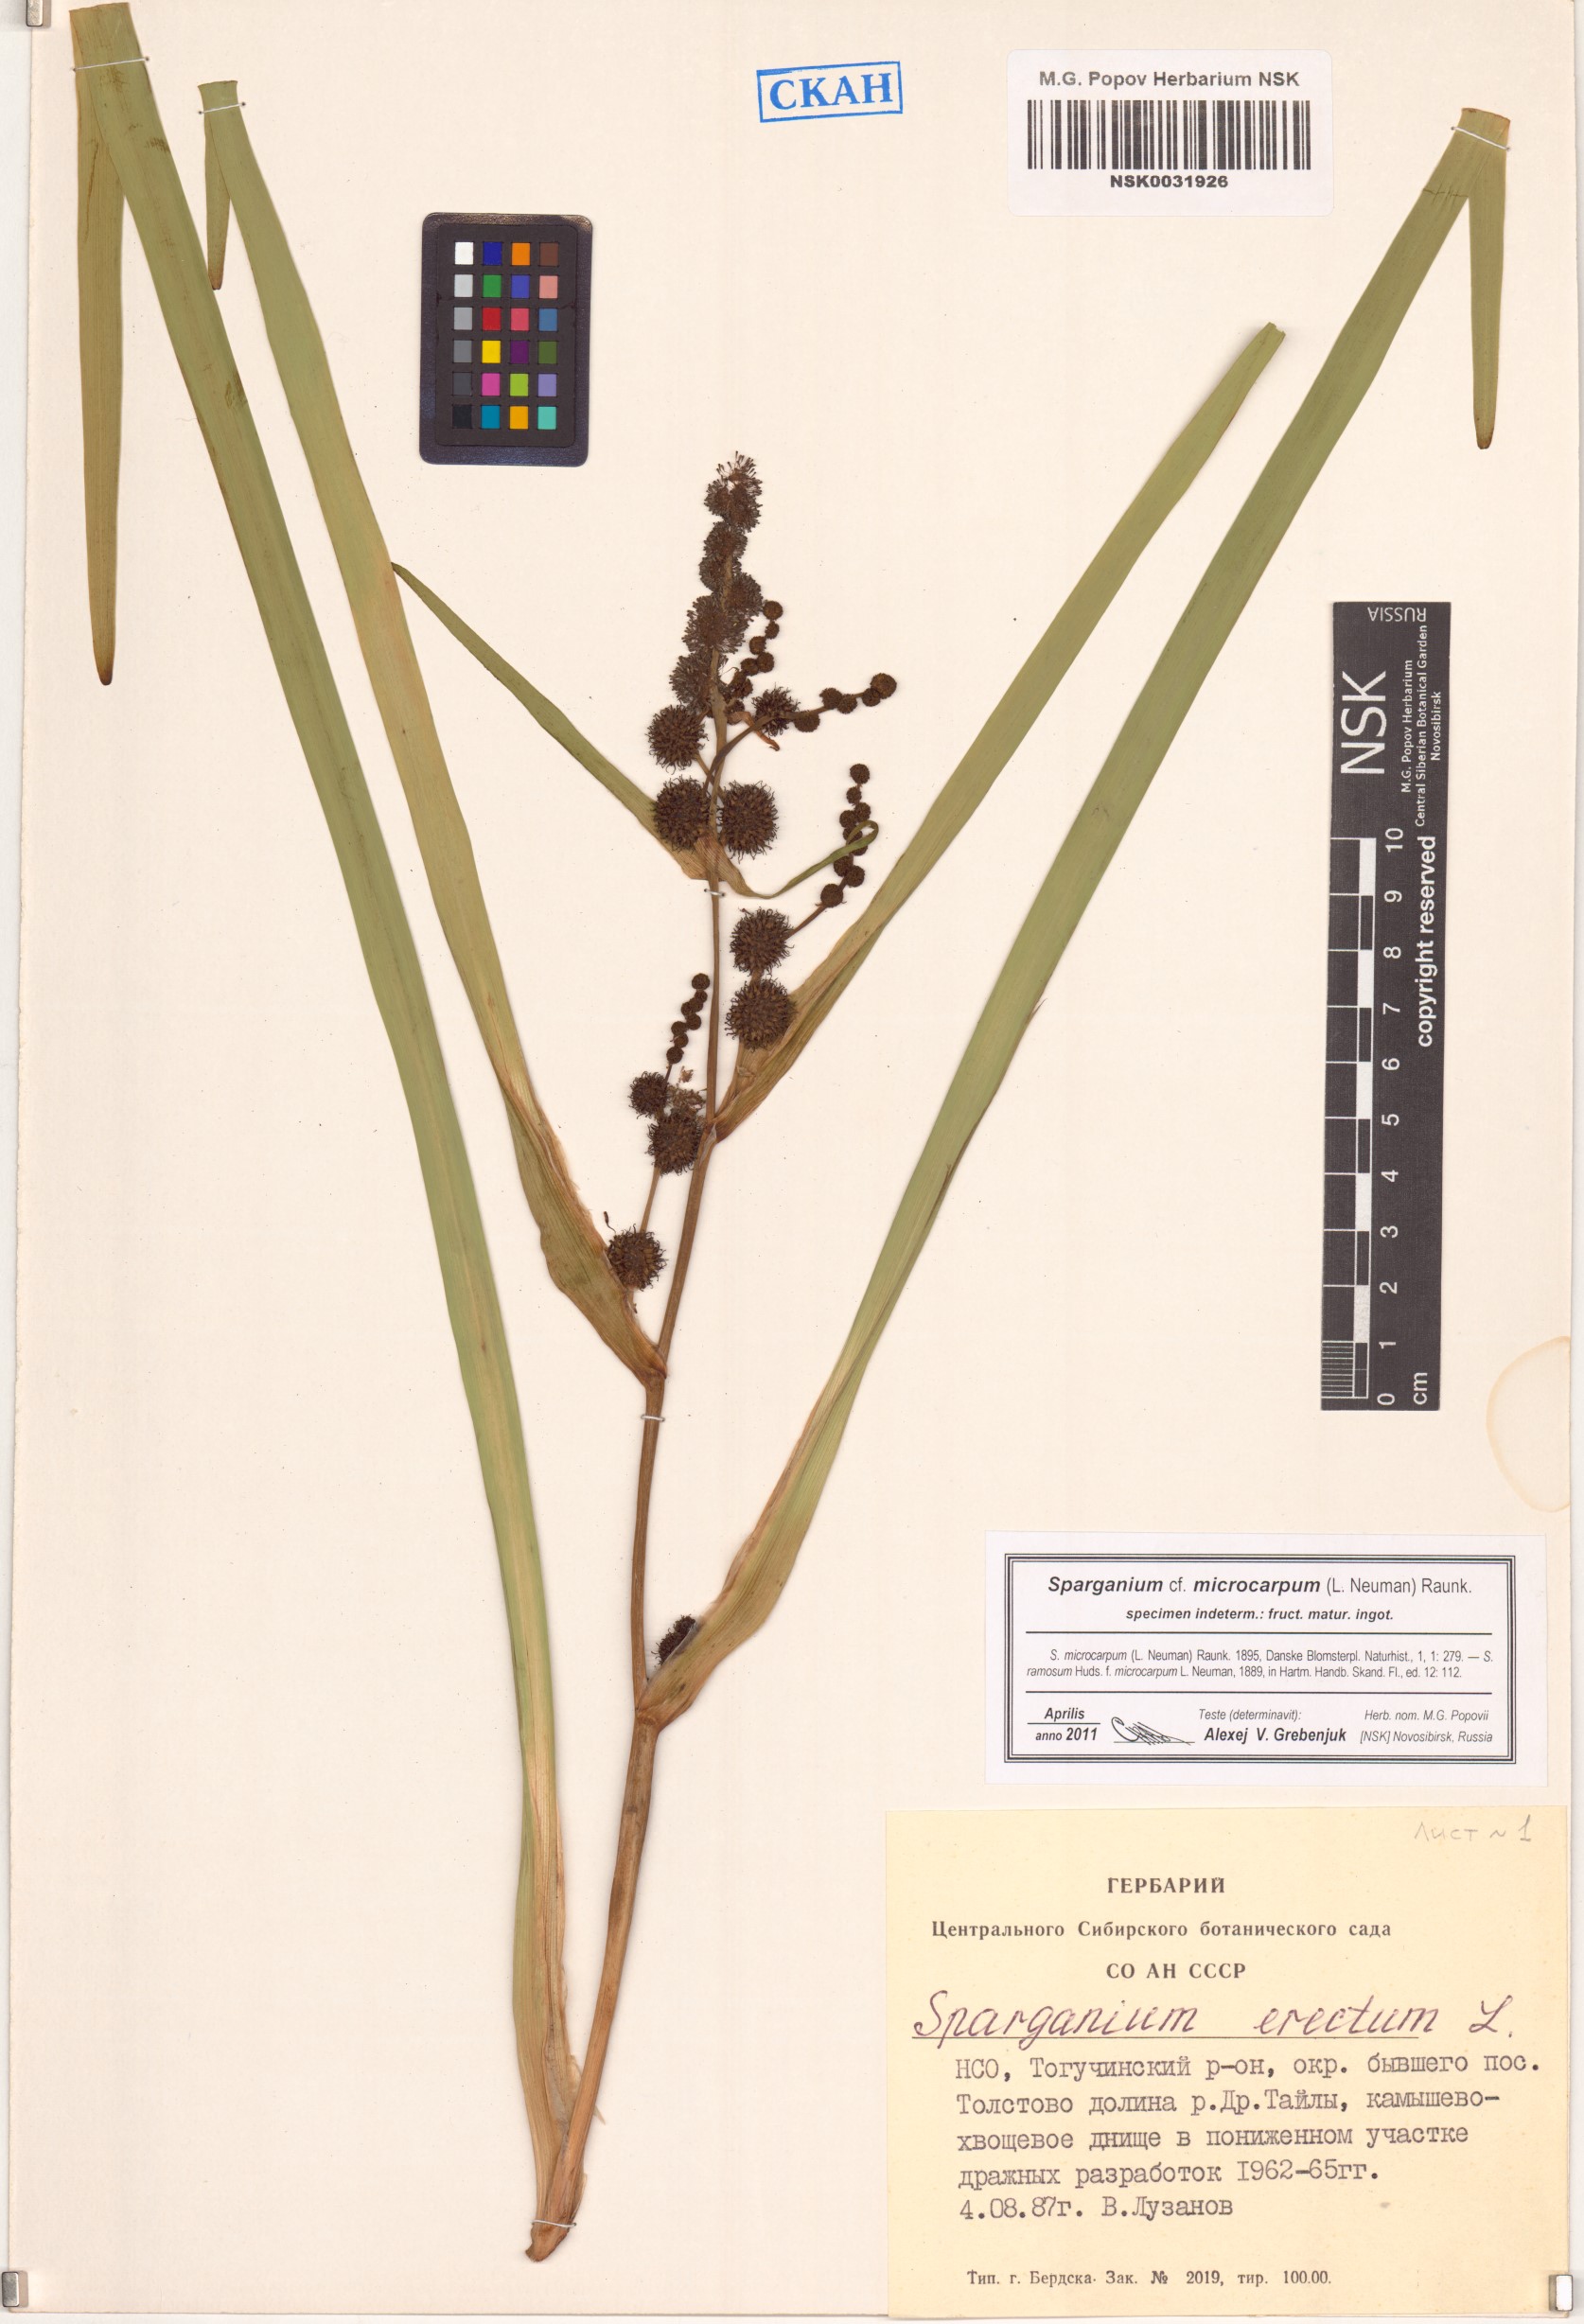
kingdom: Plantae
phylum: Tracheophyta
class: Liliopsida
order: Poales
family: Typhaceae
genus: Sparganium
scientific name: Sparganium erectum
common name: Branched bur-reed
